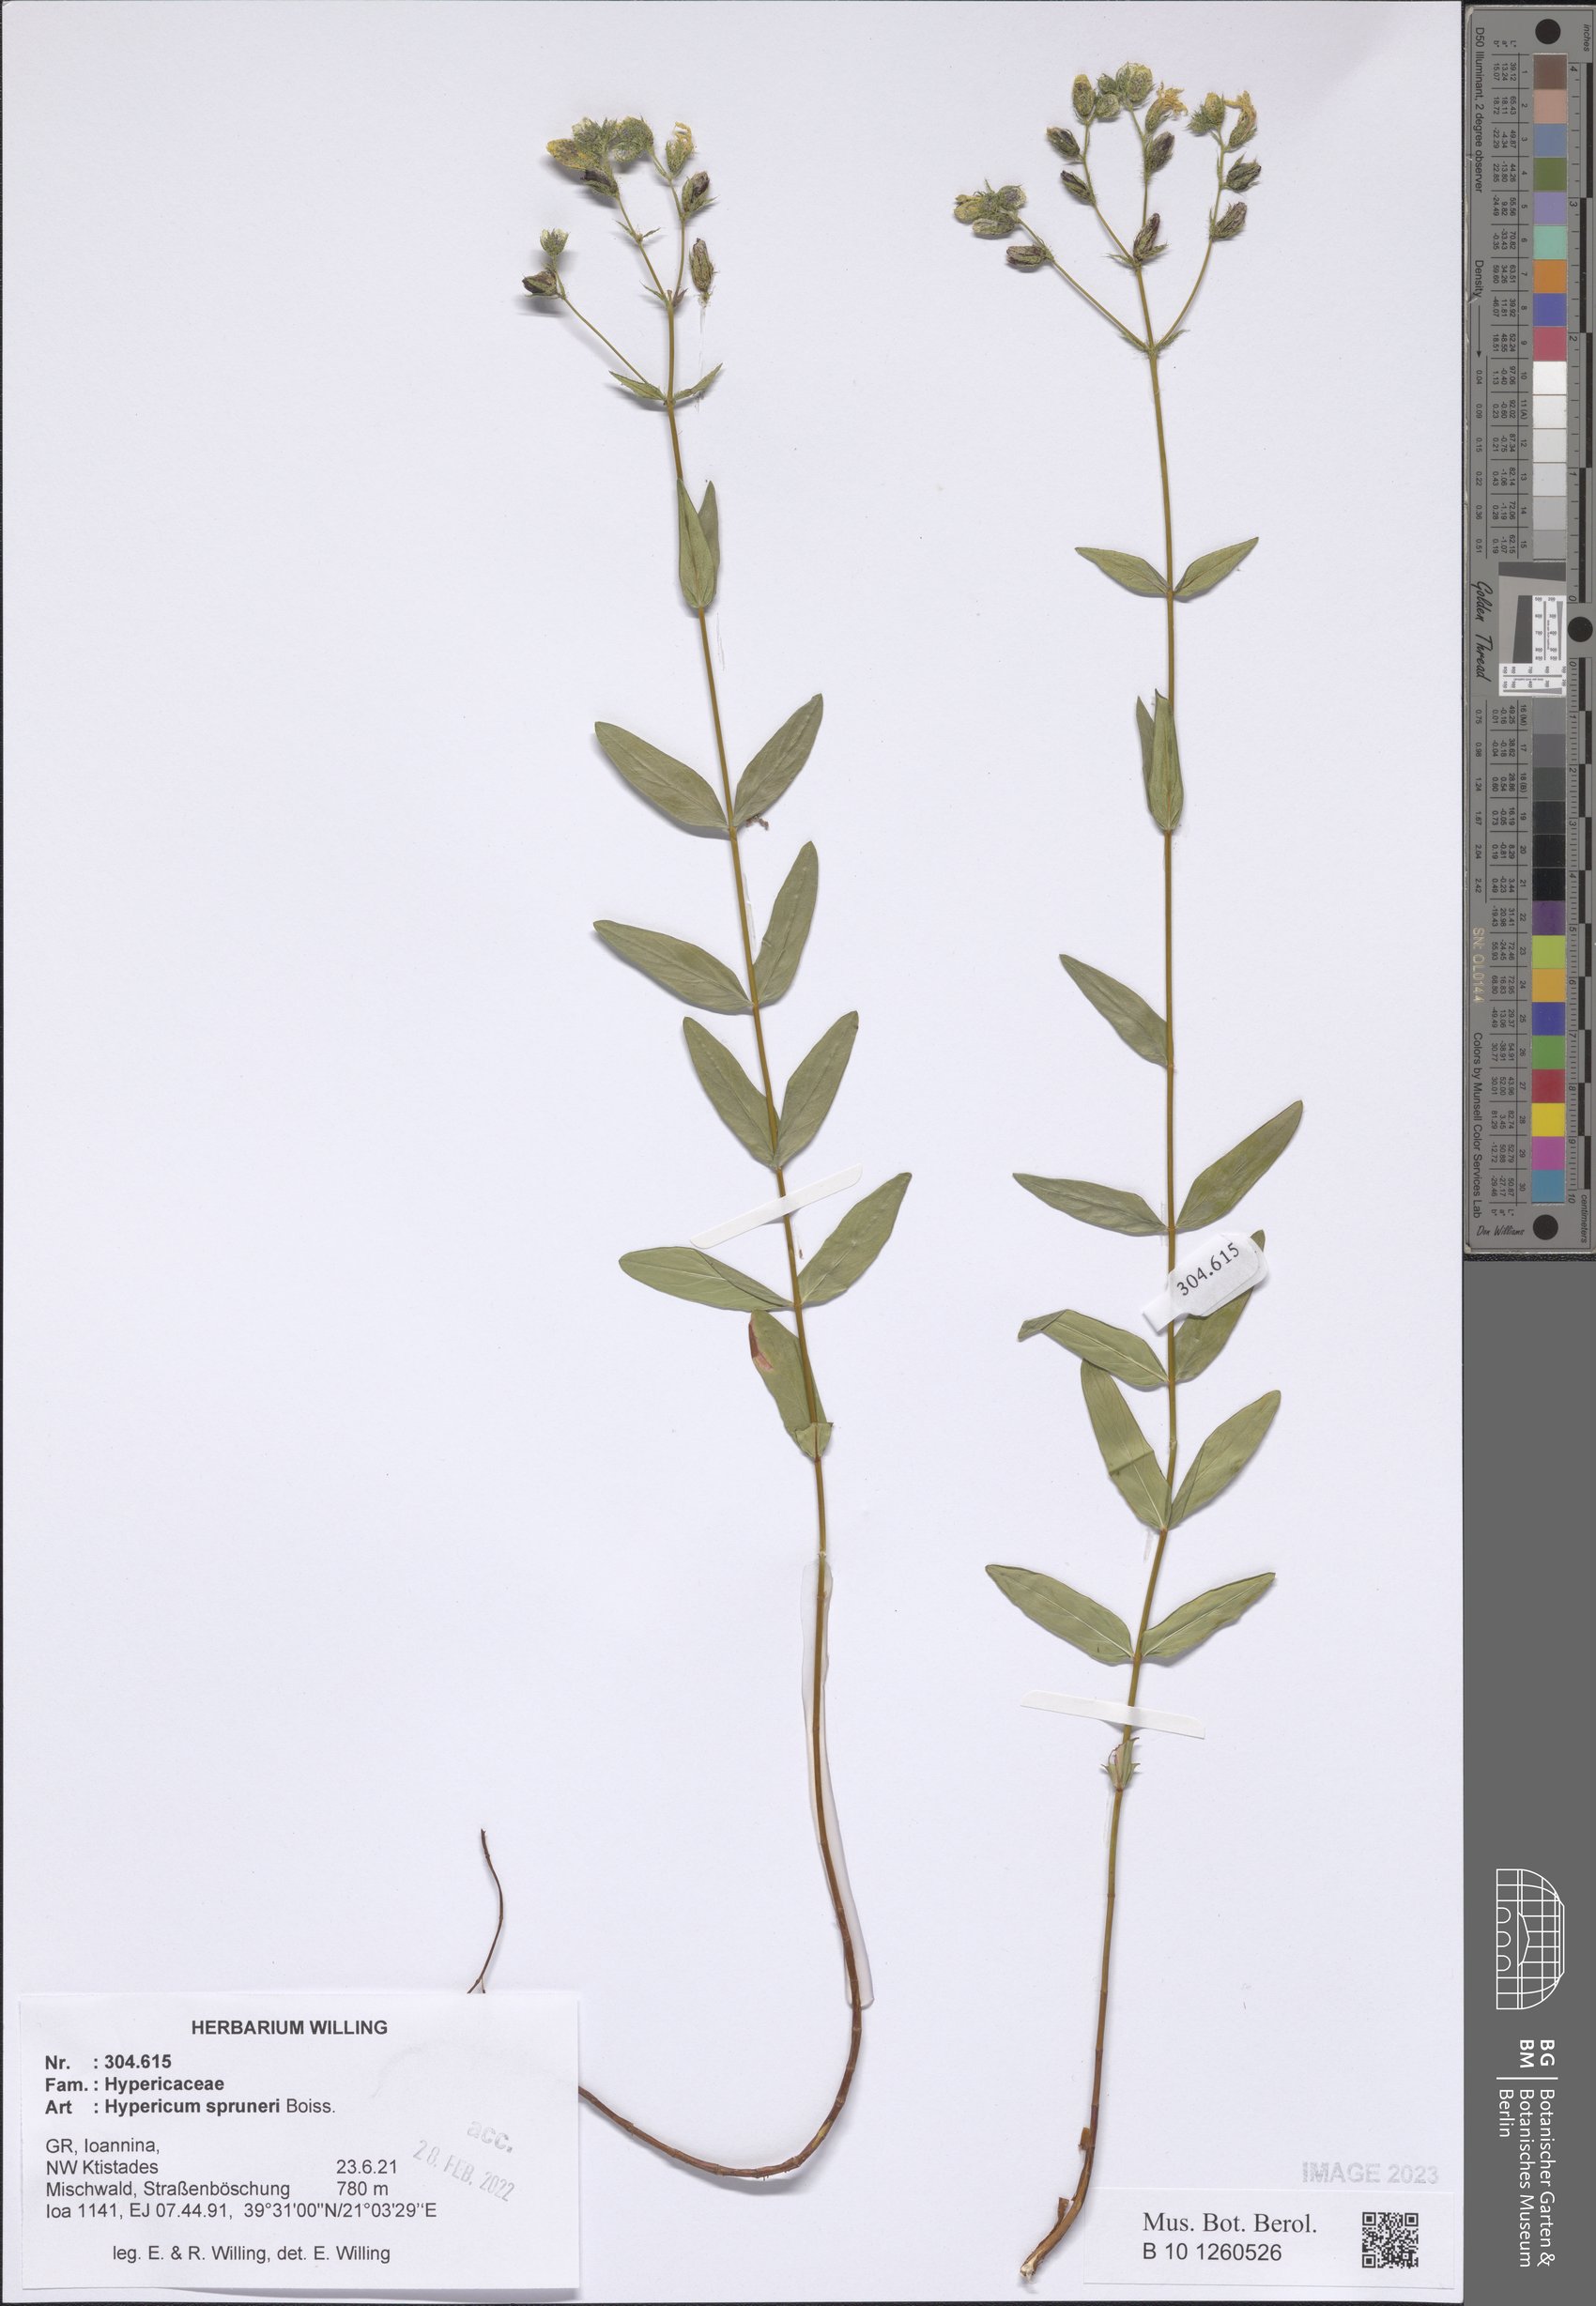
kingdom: Plantae
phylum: Tracheophyta
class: Magnoliopsida
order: Malpighiales
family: Hypericaceae
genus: Hypericum
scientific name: Hypericum spruneri
